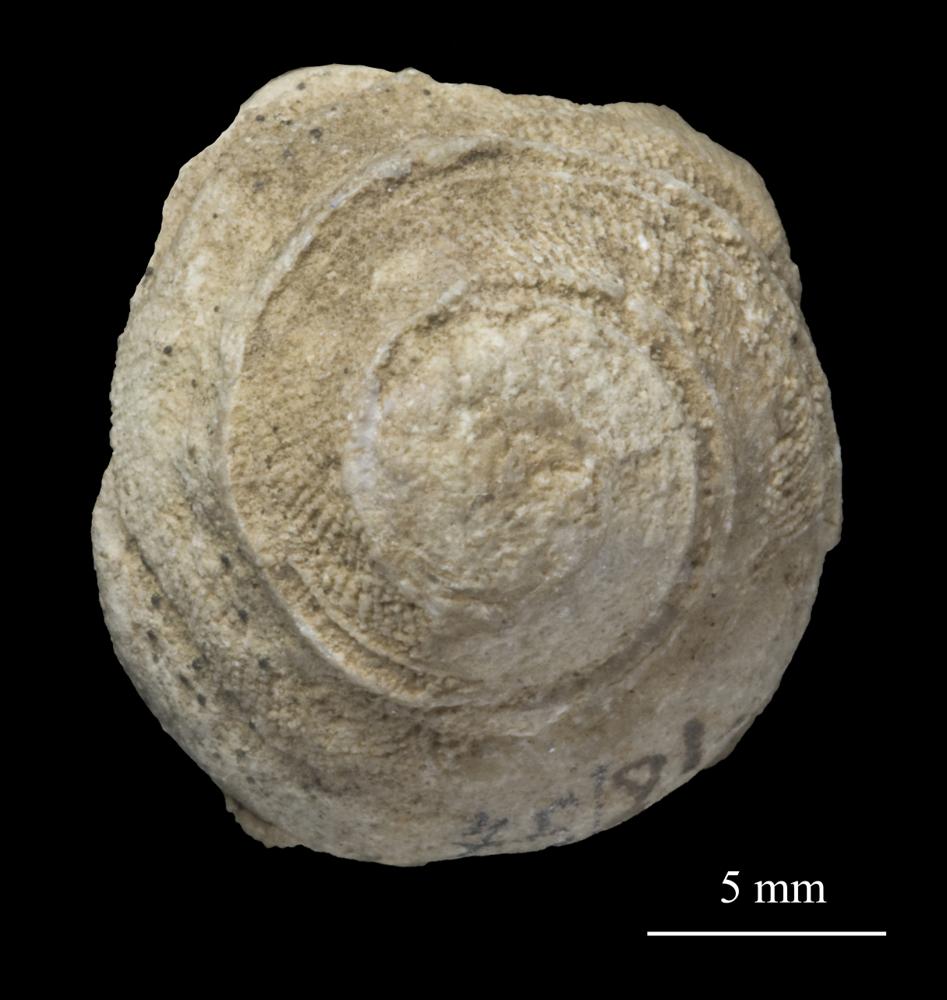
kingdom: Animalia
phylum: Mollusca
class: Gastropoda
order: Pleurotomariida
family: Phanerotrematidae
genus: Brachytomaria
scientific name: Brachytomaria nodulosa
